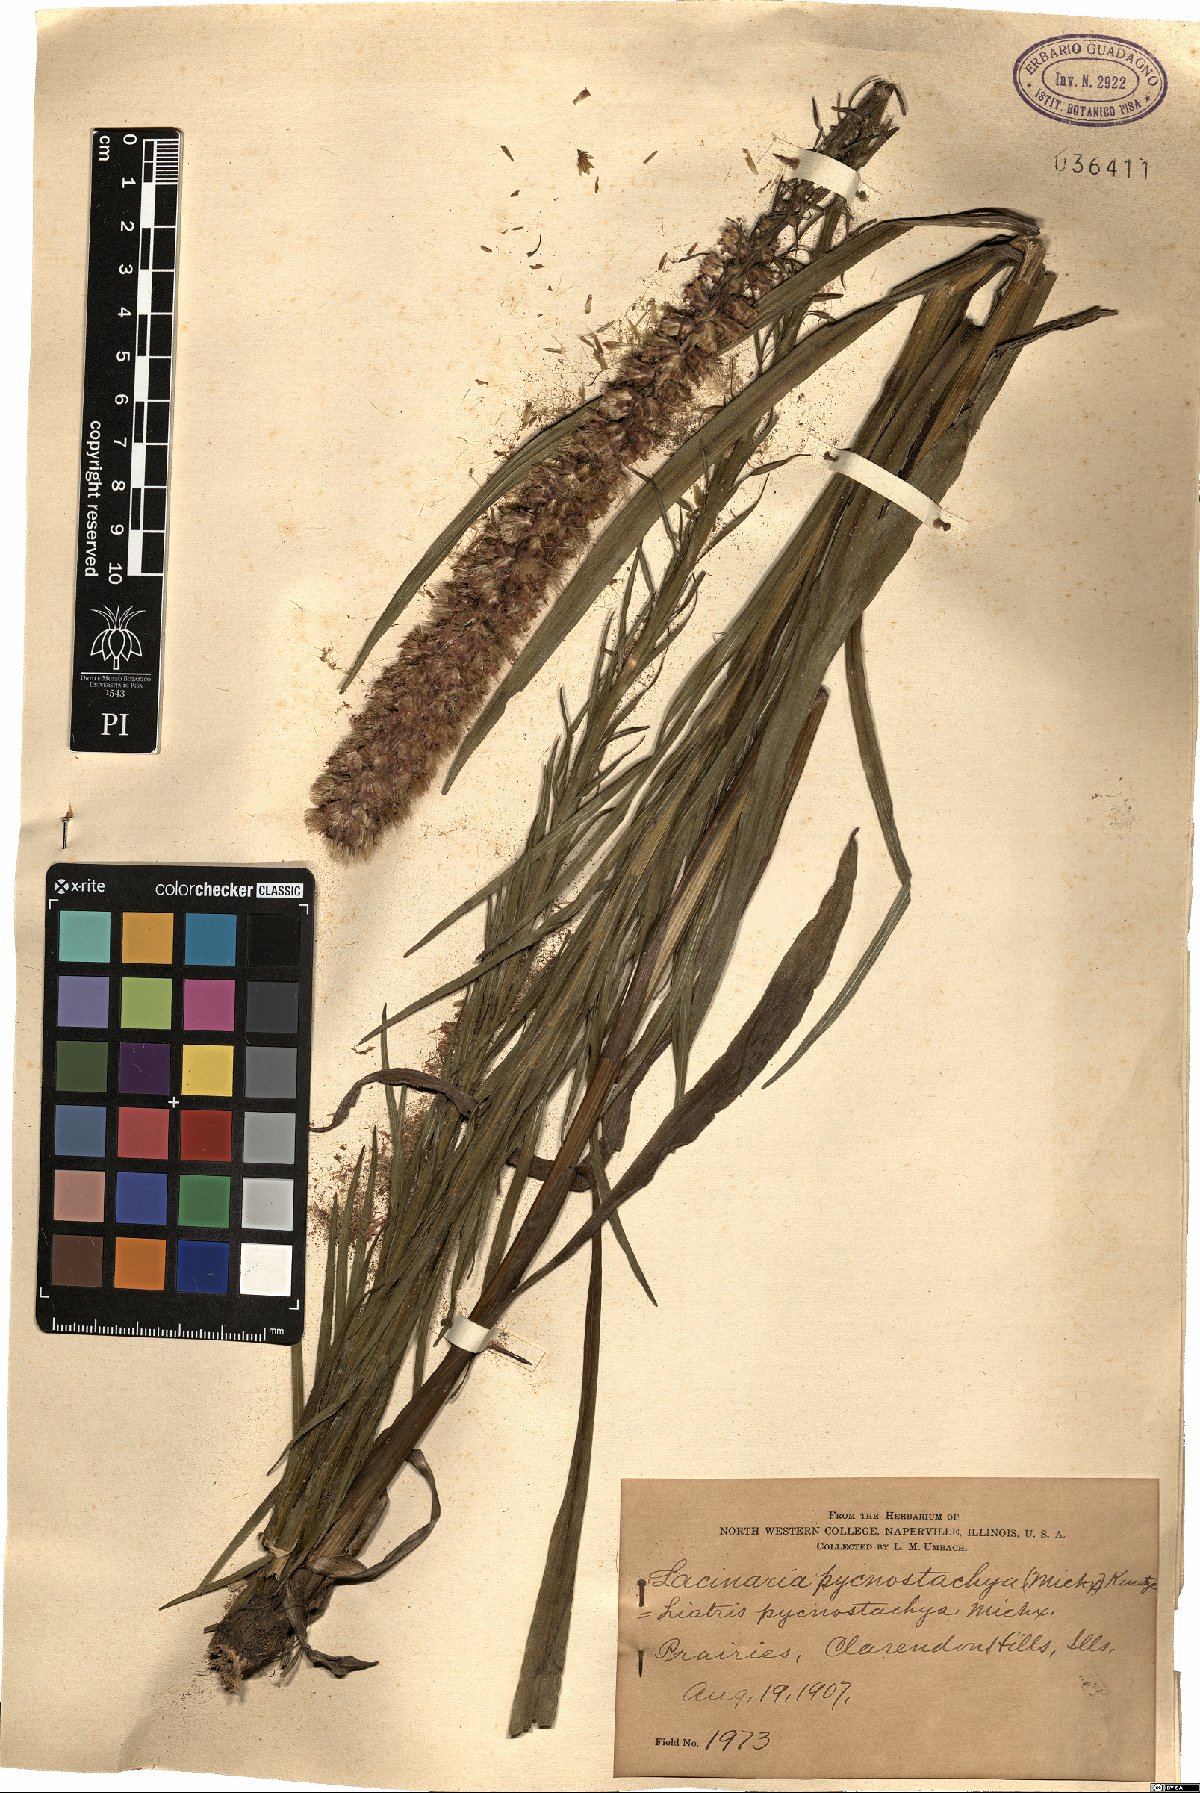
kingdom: Plantae
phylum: Tracheophyta
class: Magnoliopsida
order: Asterales
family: Asteraceae
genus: Liatris
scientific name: Liatris pycnostachya
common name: Cattail gayfeather
